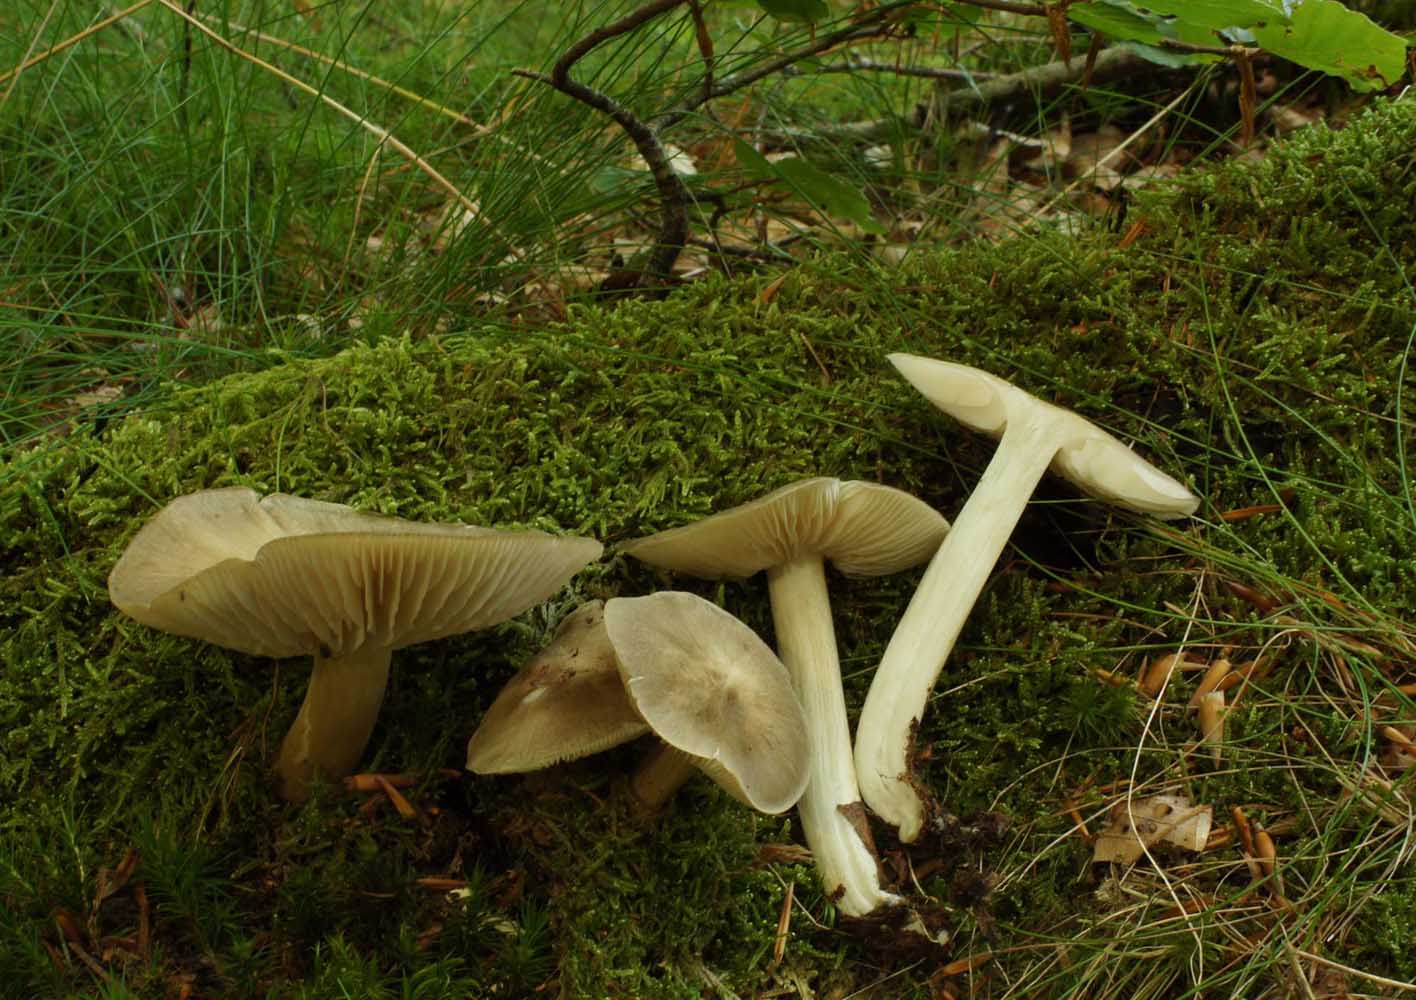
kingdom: Fungi
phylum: Basidiomycota
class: Agaricomycetes
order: Agaricales
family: Tricholomataceae
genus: Megacollybia
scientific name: Megacollybia platyphylla
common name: bredbladet væbnerhat
